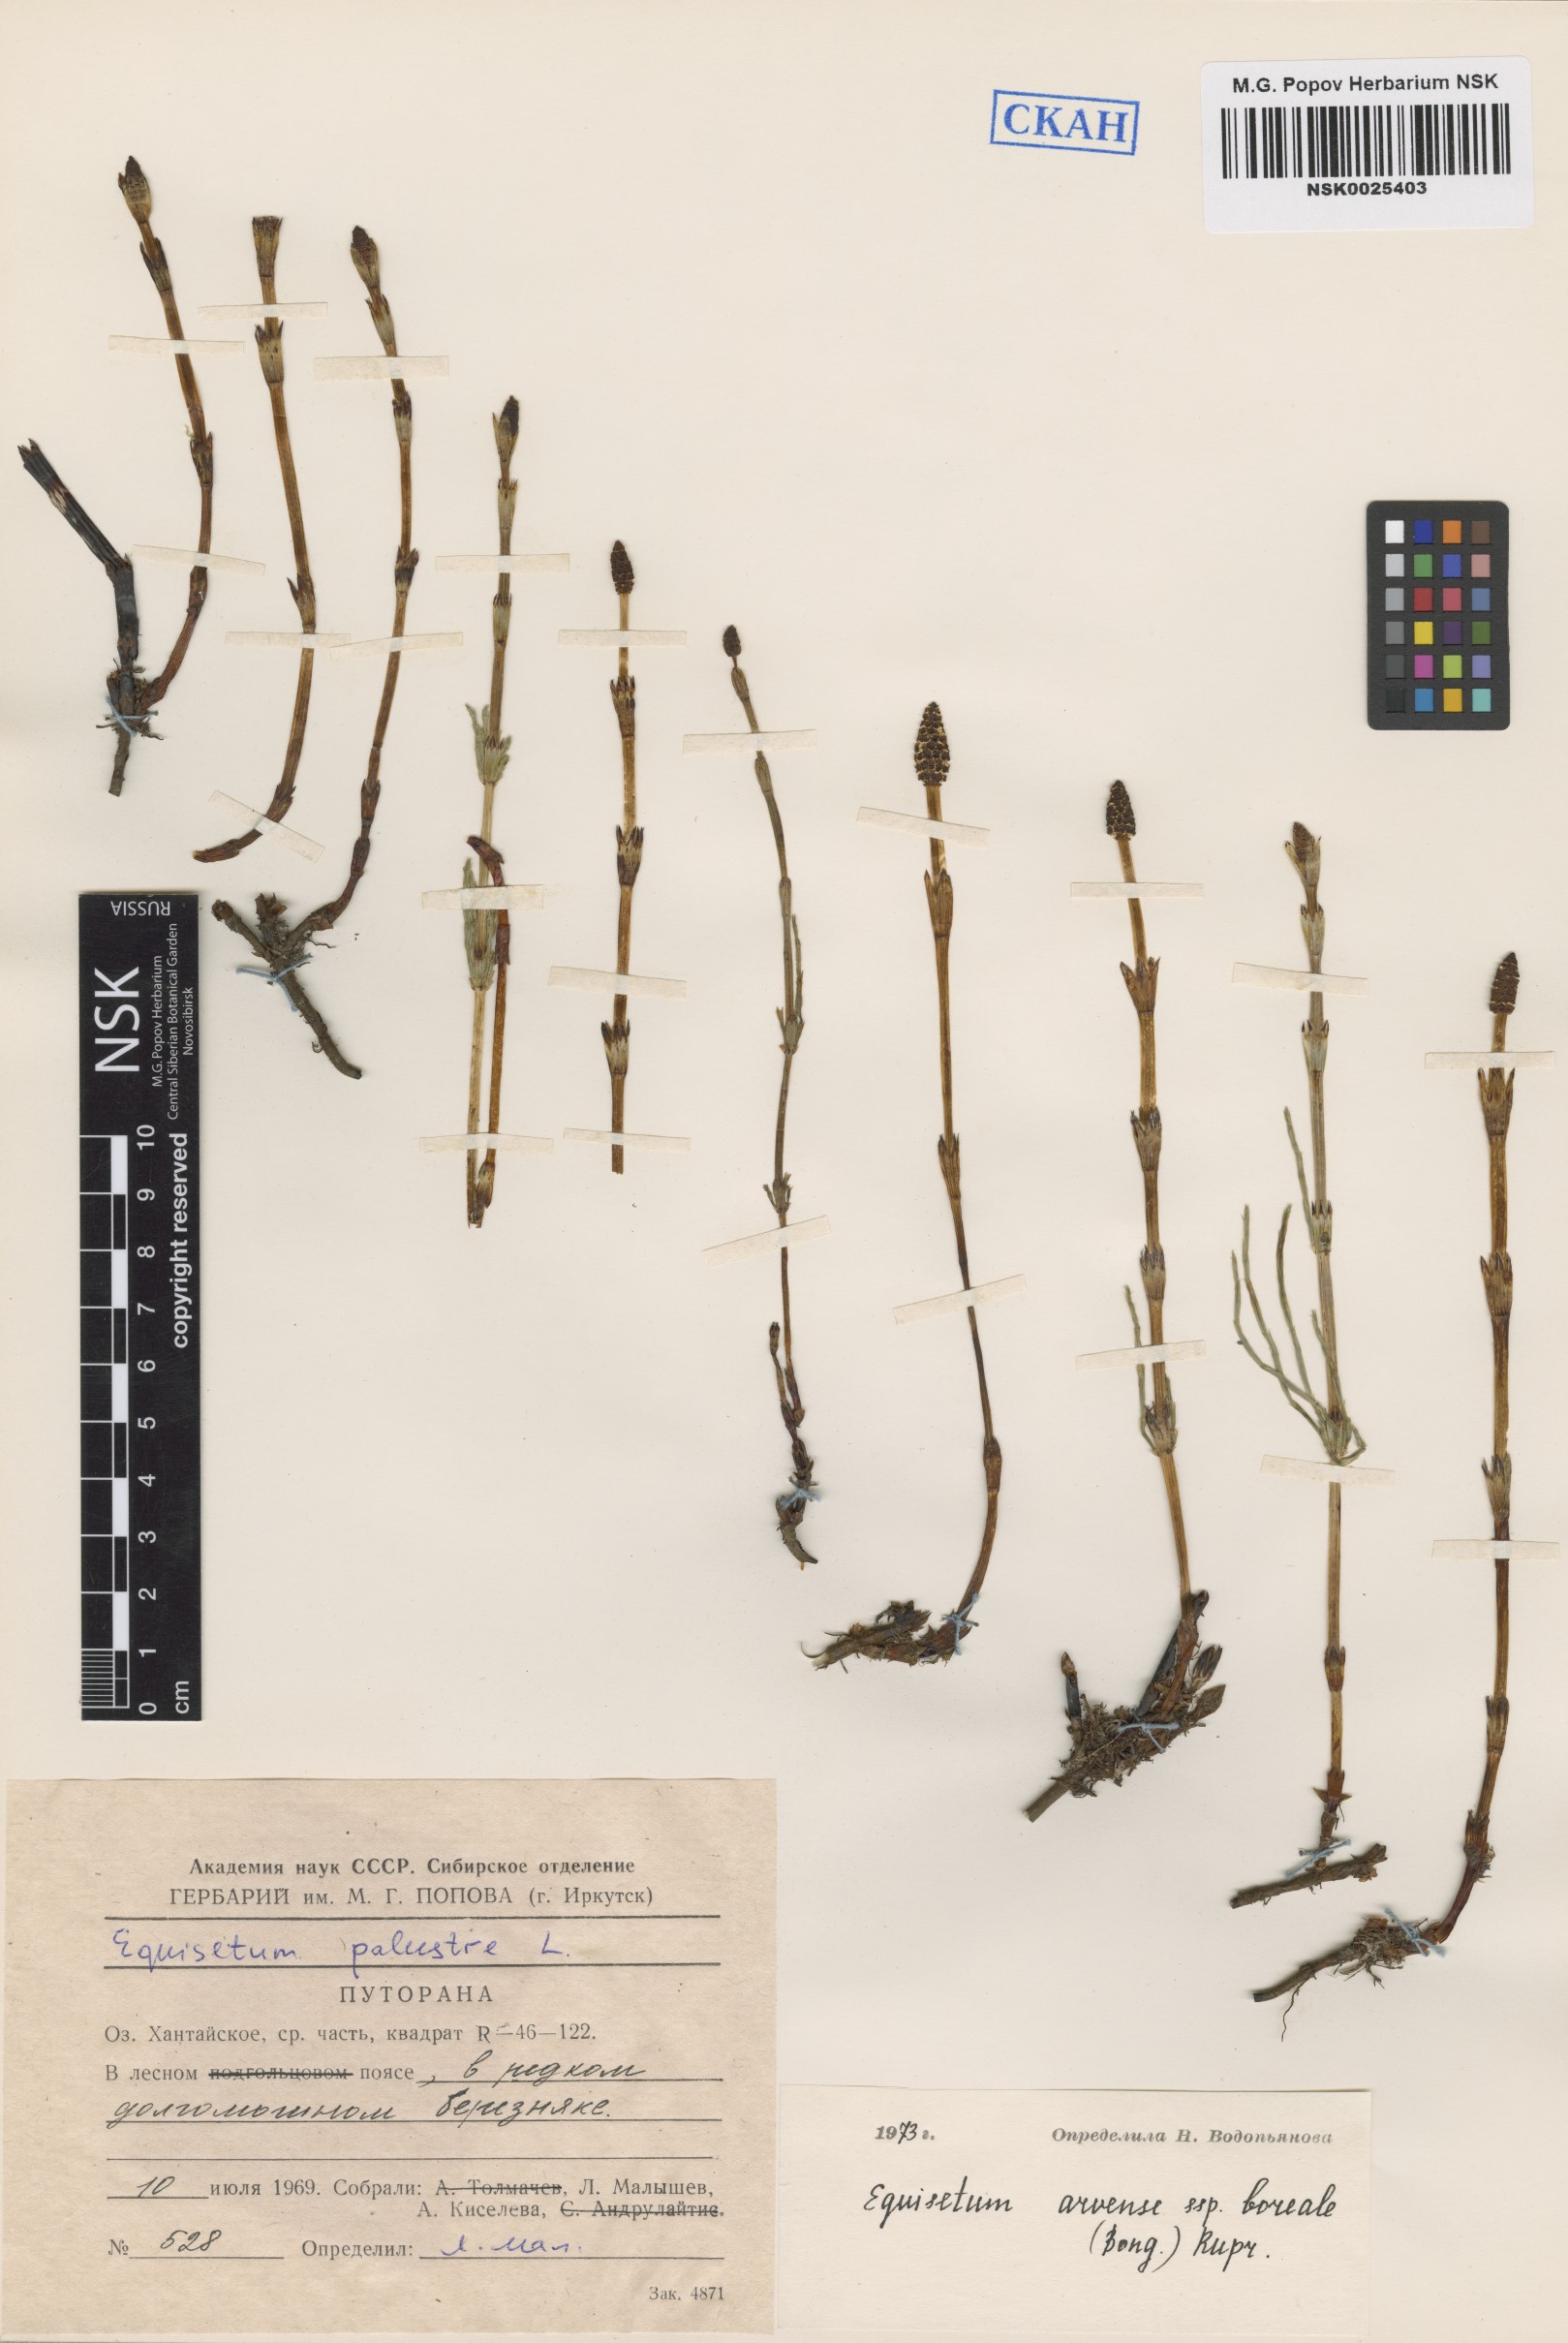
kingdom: Plantae
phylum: Tracheophyta
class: Polypodiopsida
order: Equisetales
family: Equisetaceae
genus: Equisetum
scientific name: Equisetum arvense
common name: Field horsetail
